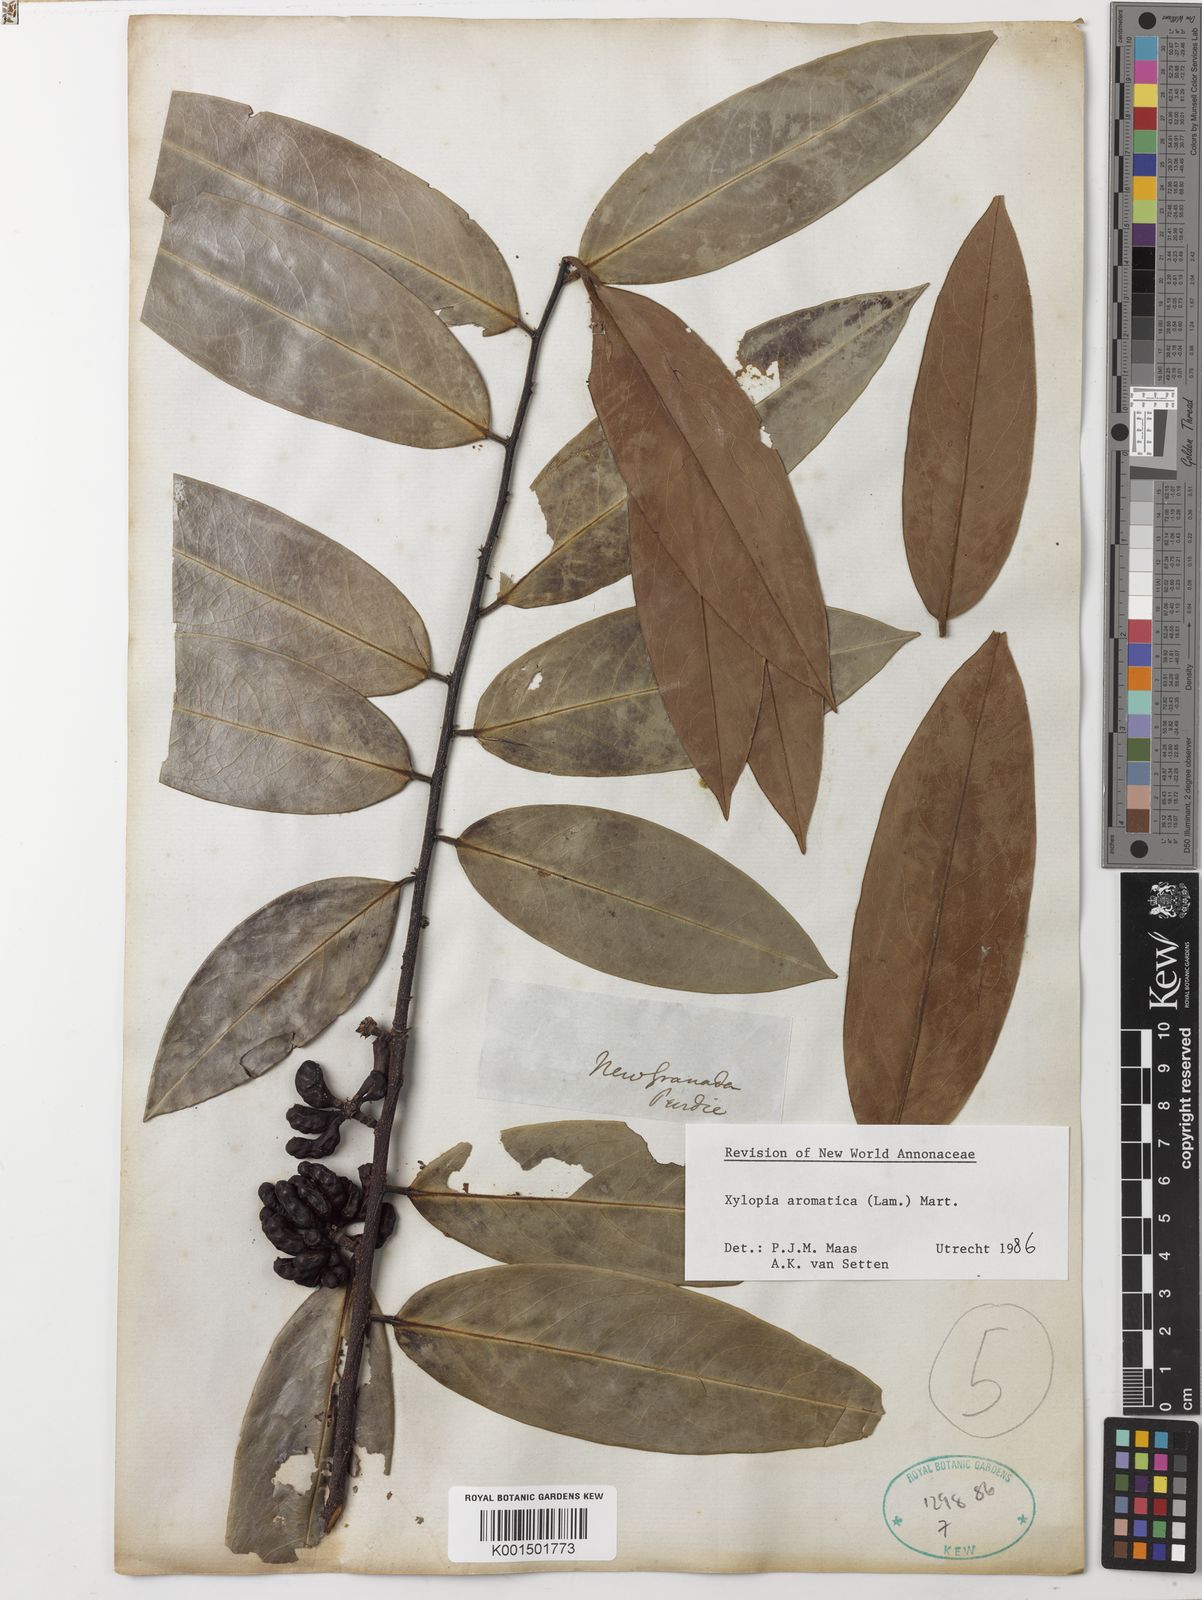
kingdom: Plantae
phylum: Tracheophyta
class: Magnoliopsida
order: Magnoliales
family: Annonaceae
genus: Xylopia
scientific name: Xylopia aromatica
